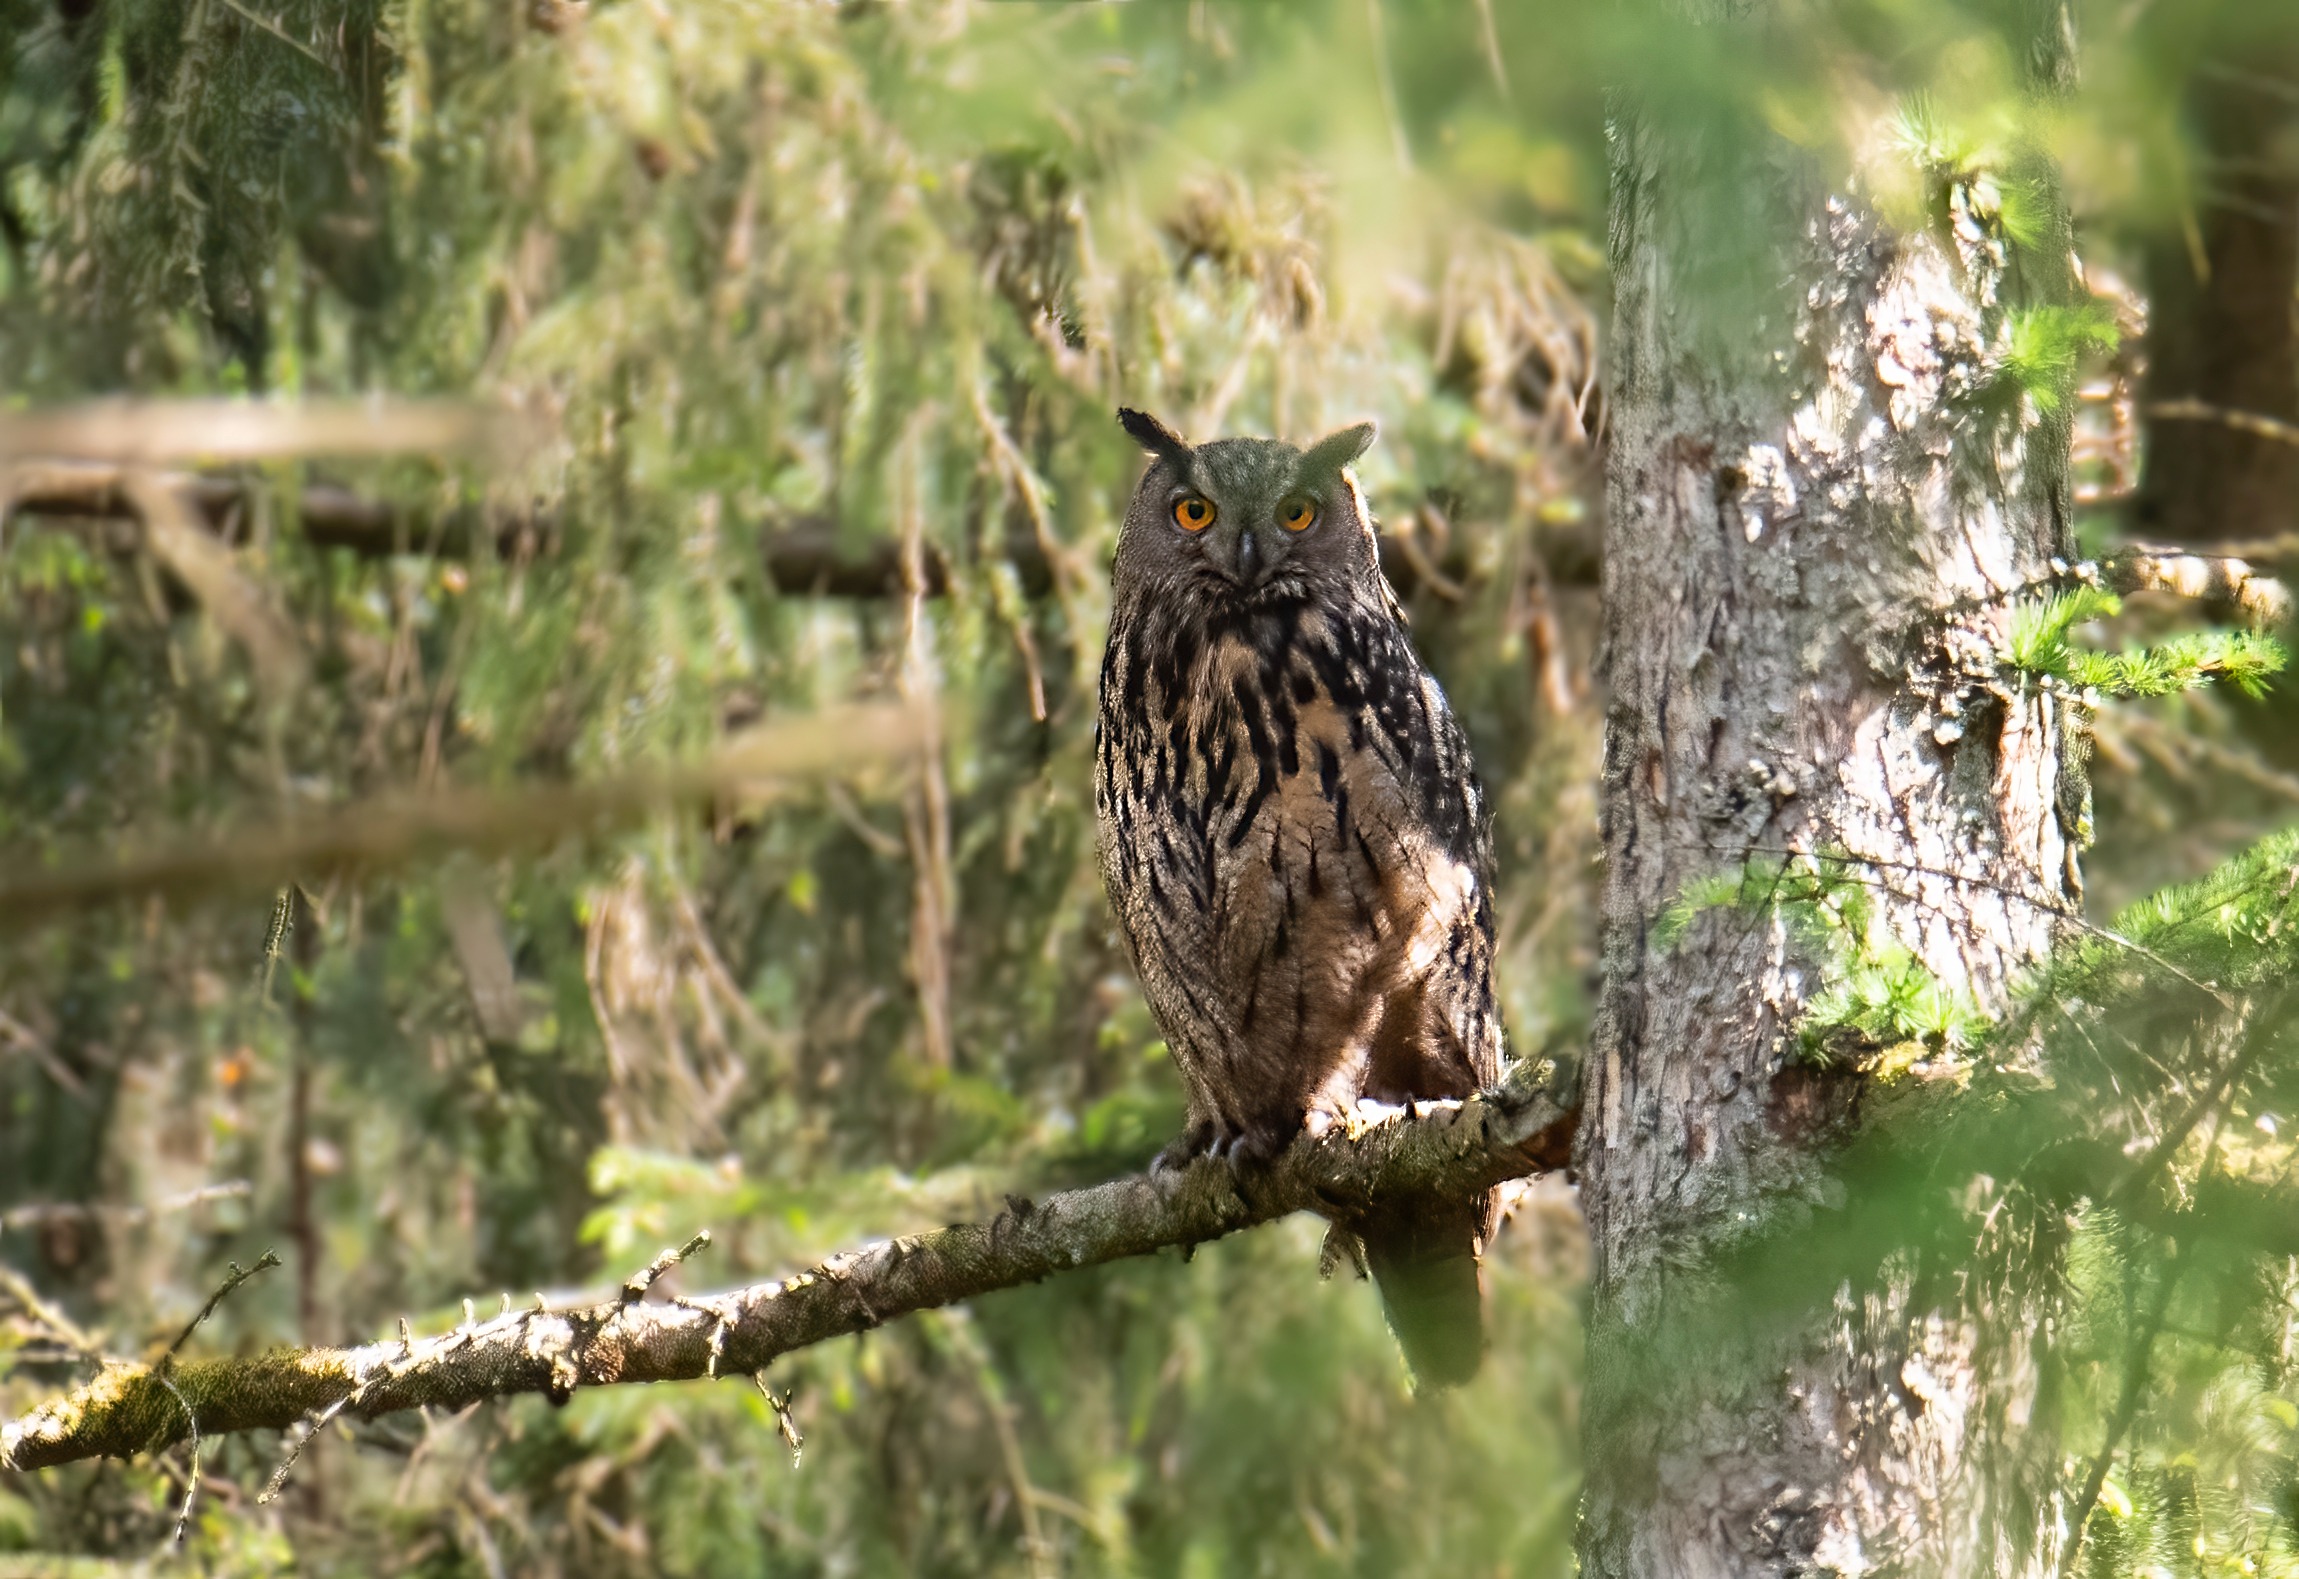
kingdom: Animalia
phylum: Chordata
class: Aves
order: Strigiformes
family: Strigidae
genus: Bubo
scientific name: Bubo bubo
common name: Stor hornugle
